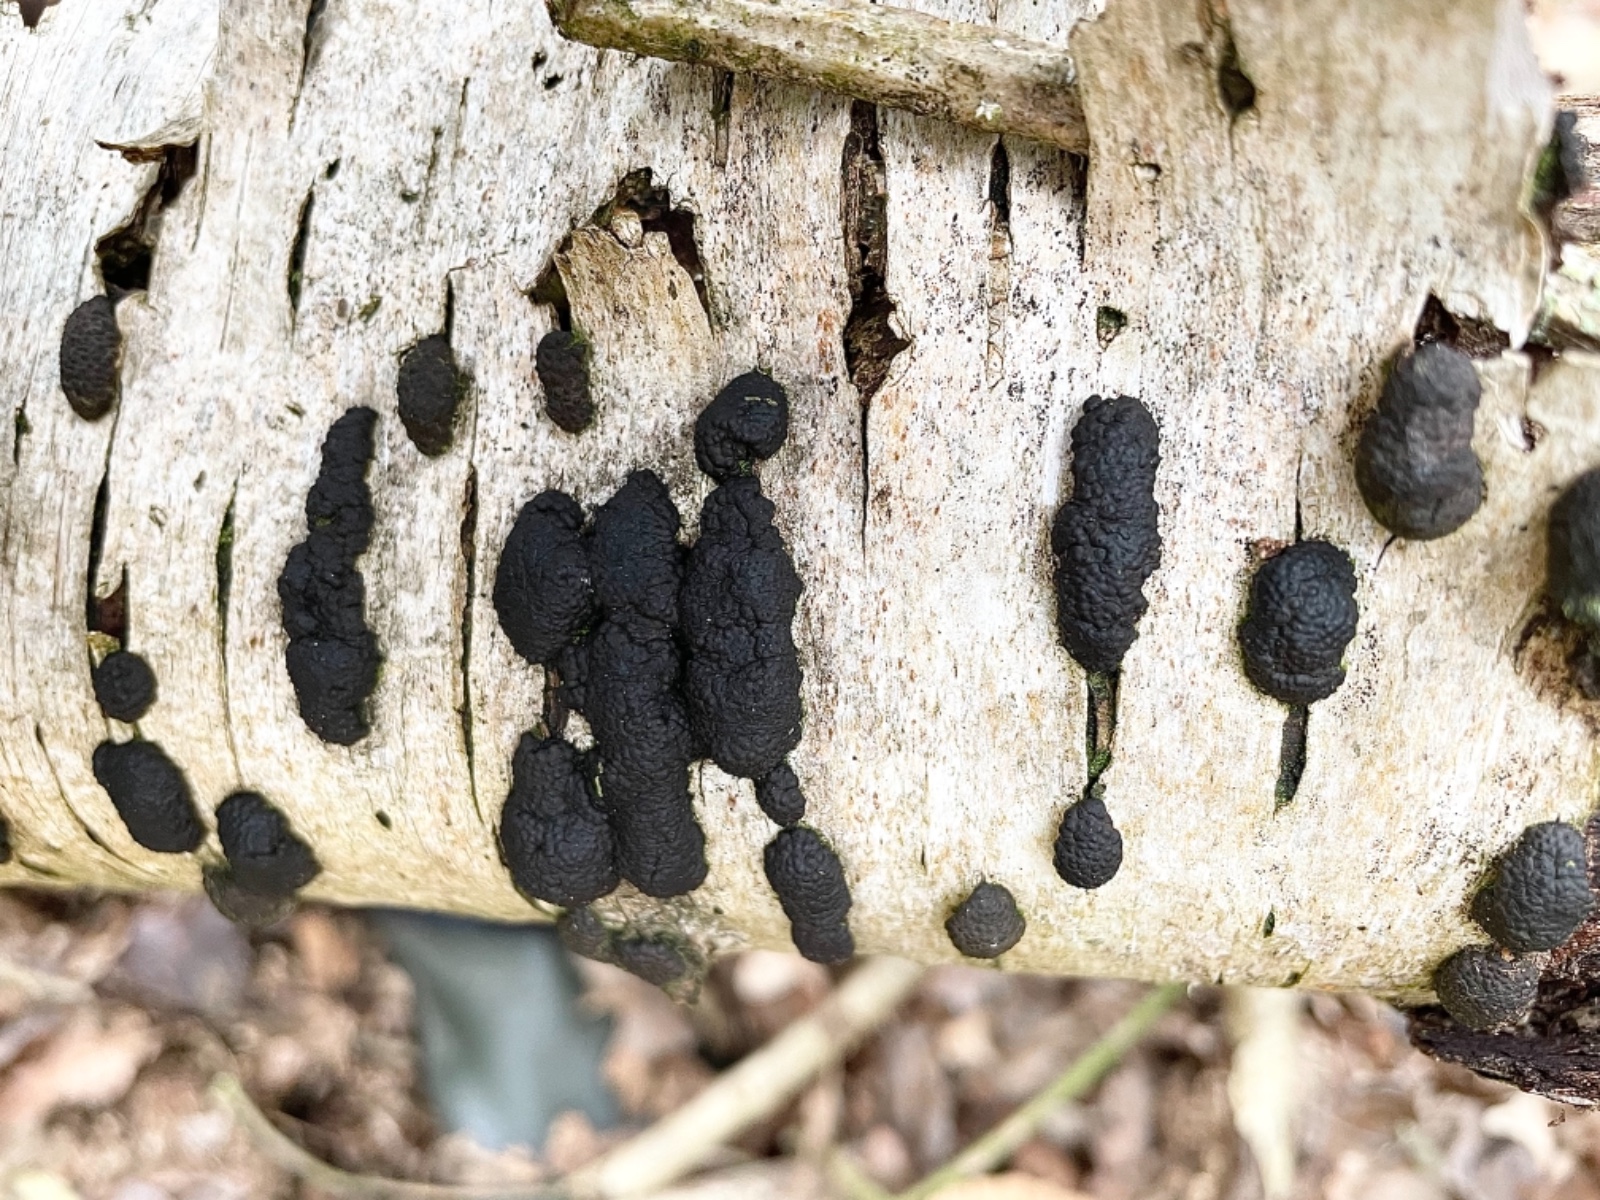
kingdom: Fungi
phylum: Ascomycota
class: Sordariomycetes
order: Xylariales
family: Hypoxylaceae
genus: Jackrogersella
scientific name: Jackrogersella multiformis
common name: foranderlig kulbær
